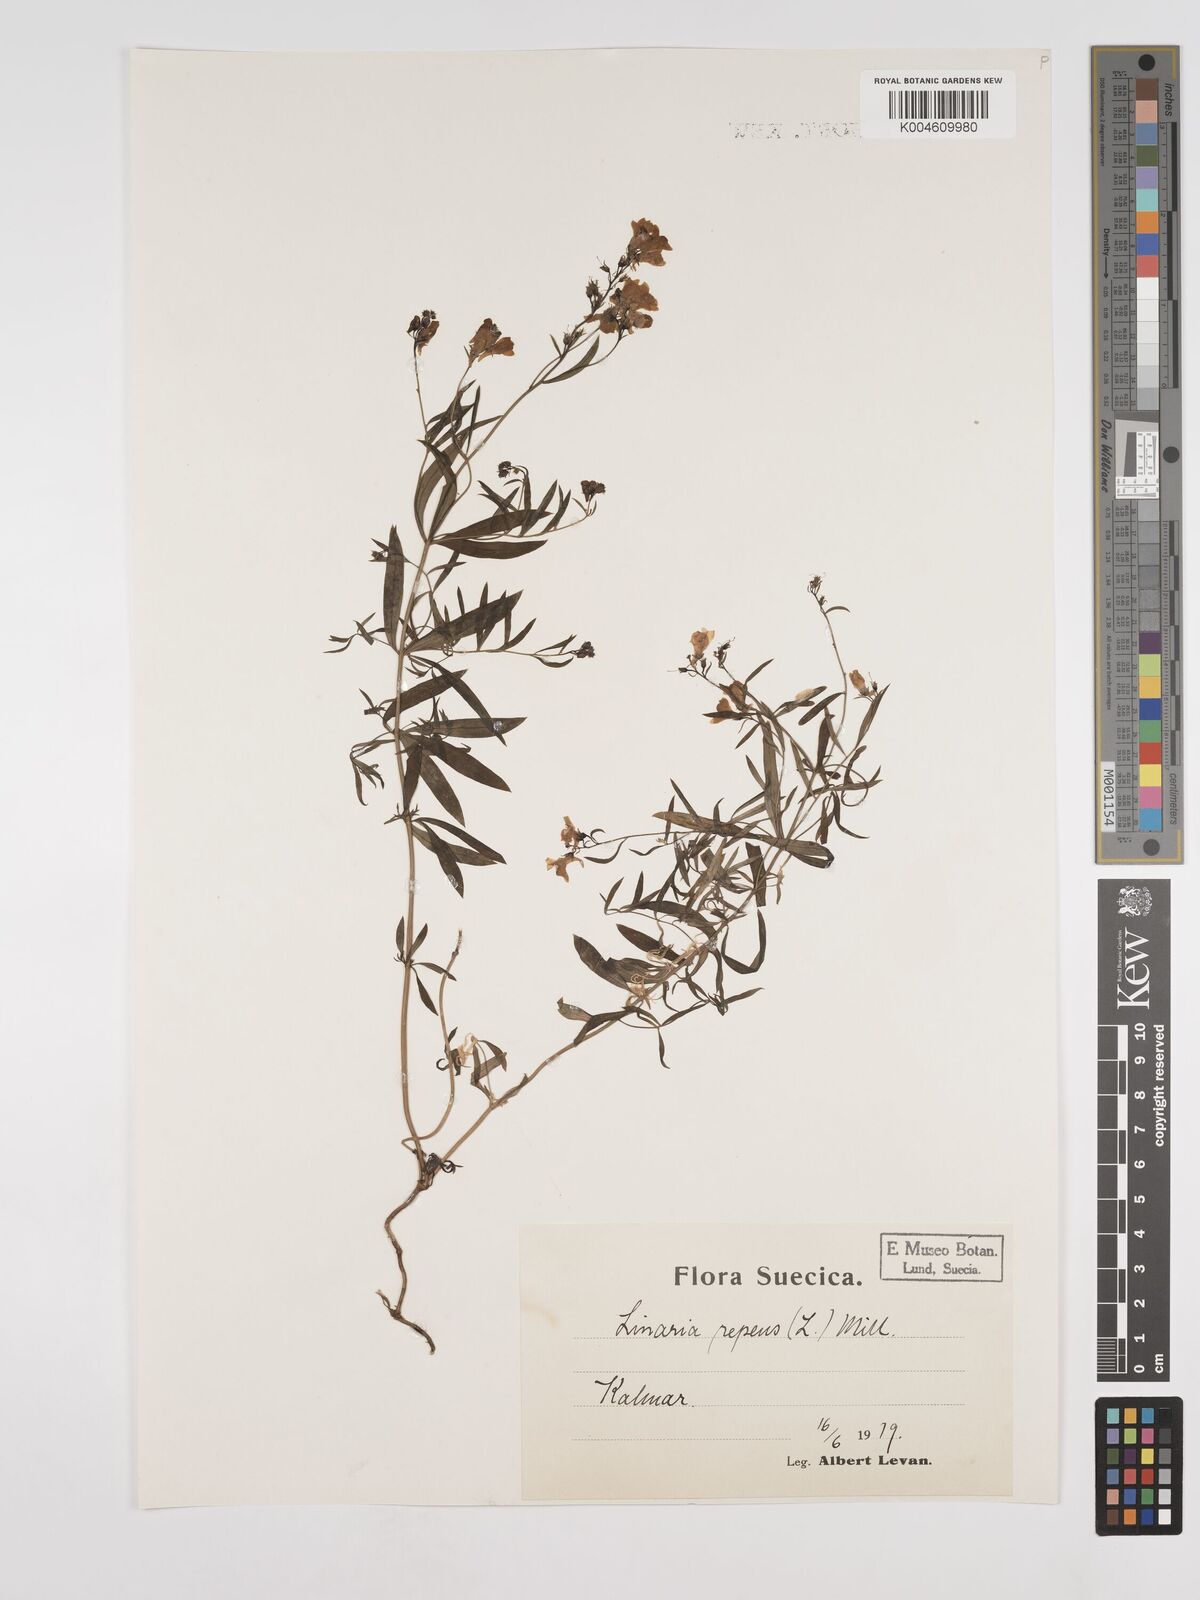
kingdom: Plantae
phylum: Tracheophyta
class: Magnoliopsida
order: Lamiales
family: Plantaginaceae
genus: Linaria
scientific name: Linaria
